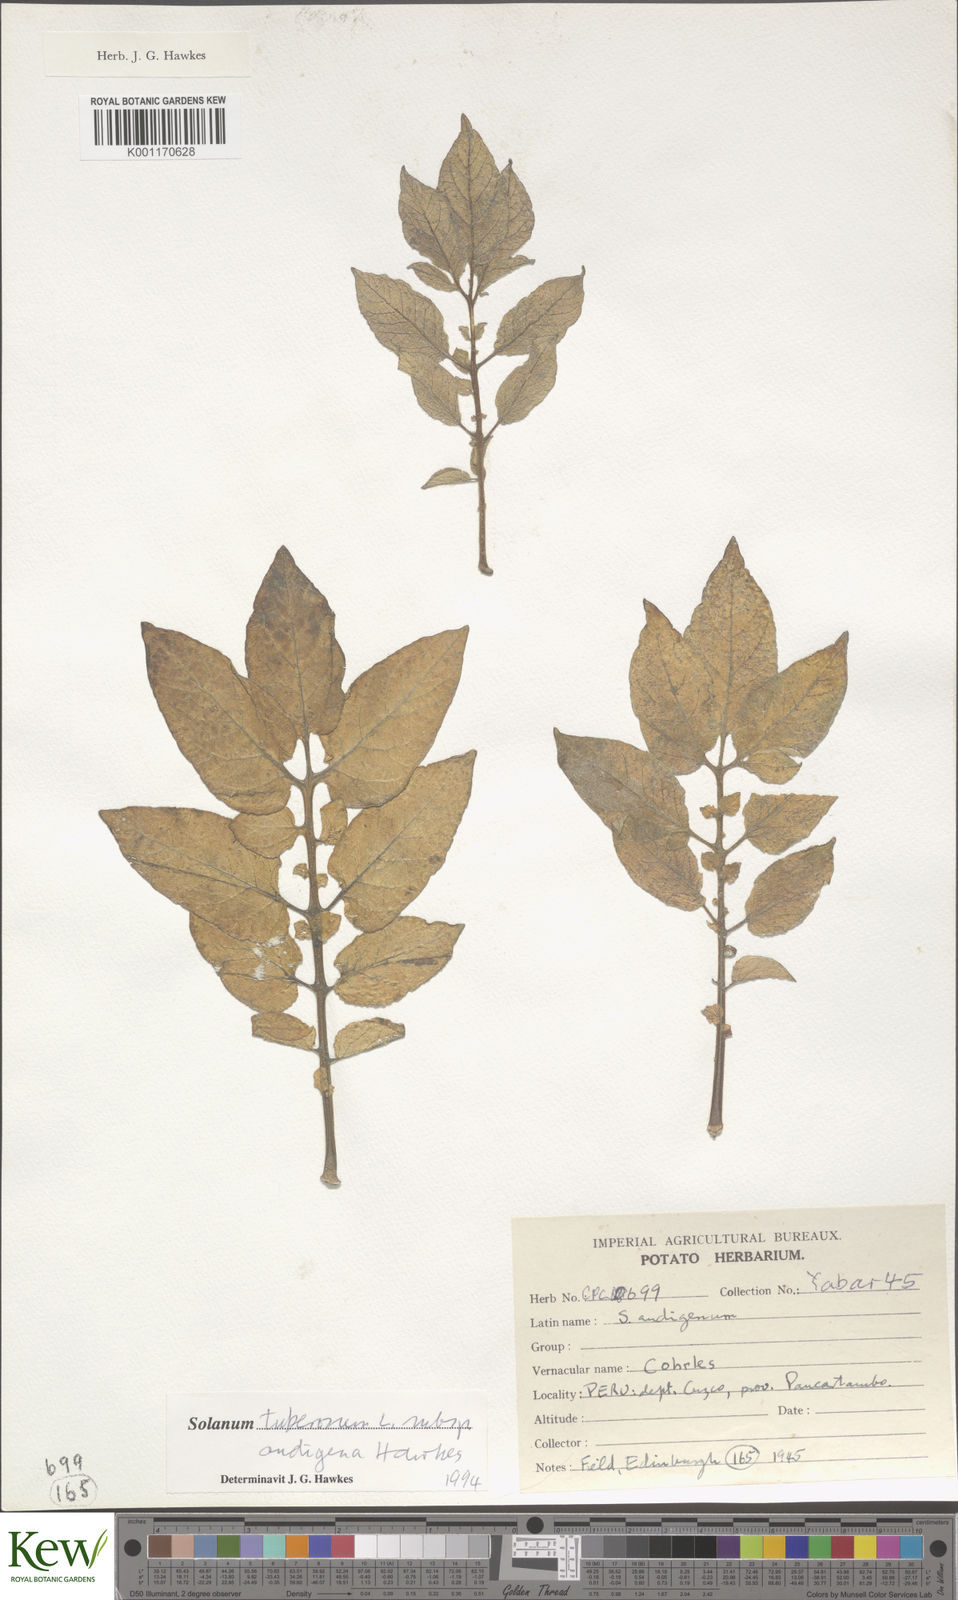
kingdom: Plantae
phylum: Tracheophyta
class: Magnoliopsida
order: Solanales
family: Solanaceae
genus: Solanum
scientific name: Solanum tuberosum
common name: Potato
